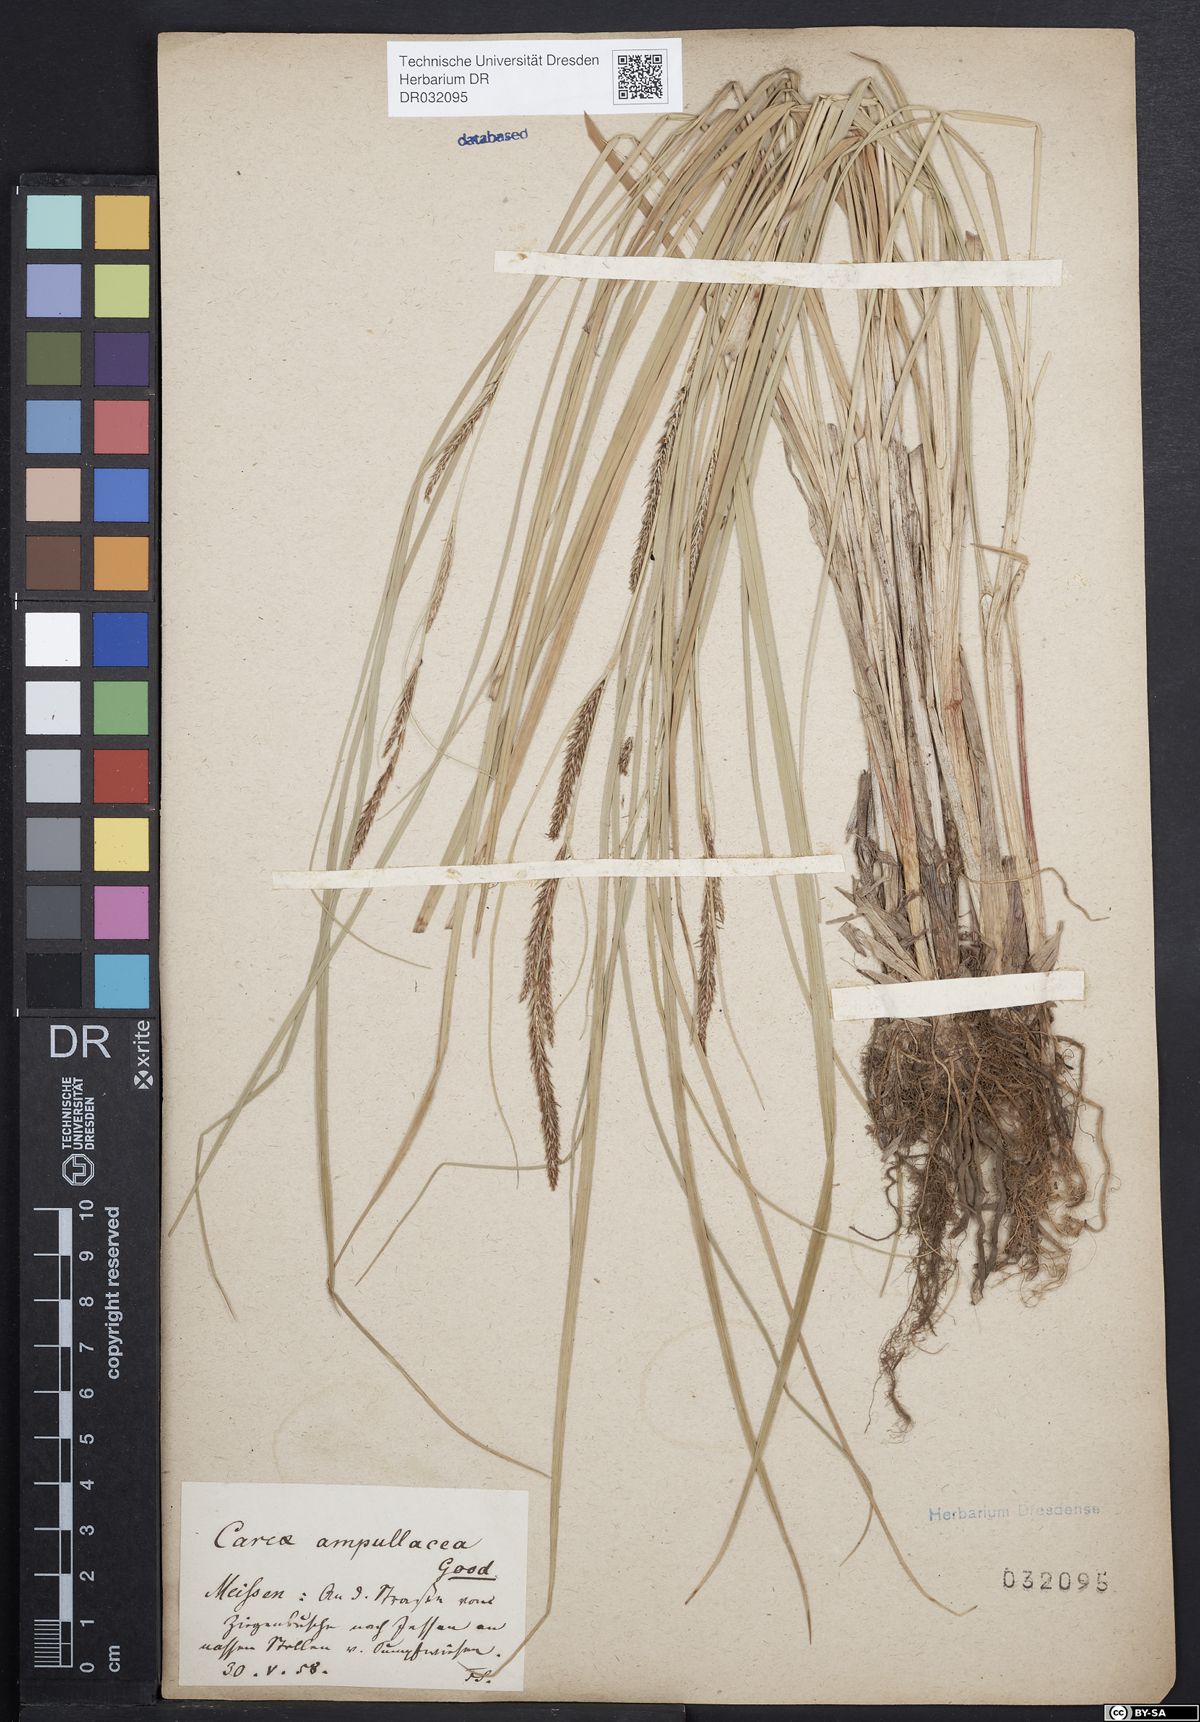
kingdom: Plantae
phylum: Tracheophyta
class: Liliopsida
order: Poales
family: Cyperaceae
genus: Carex
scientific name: Carex rostrata
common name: Bottle sedge
